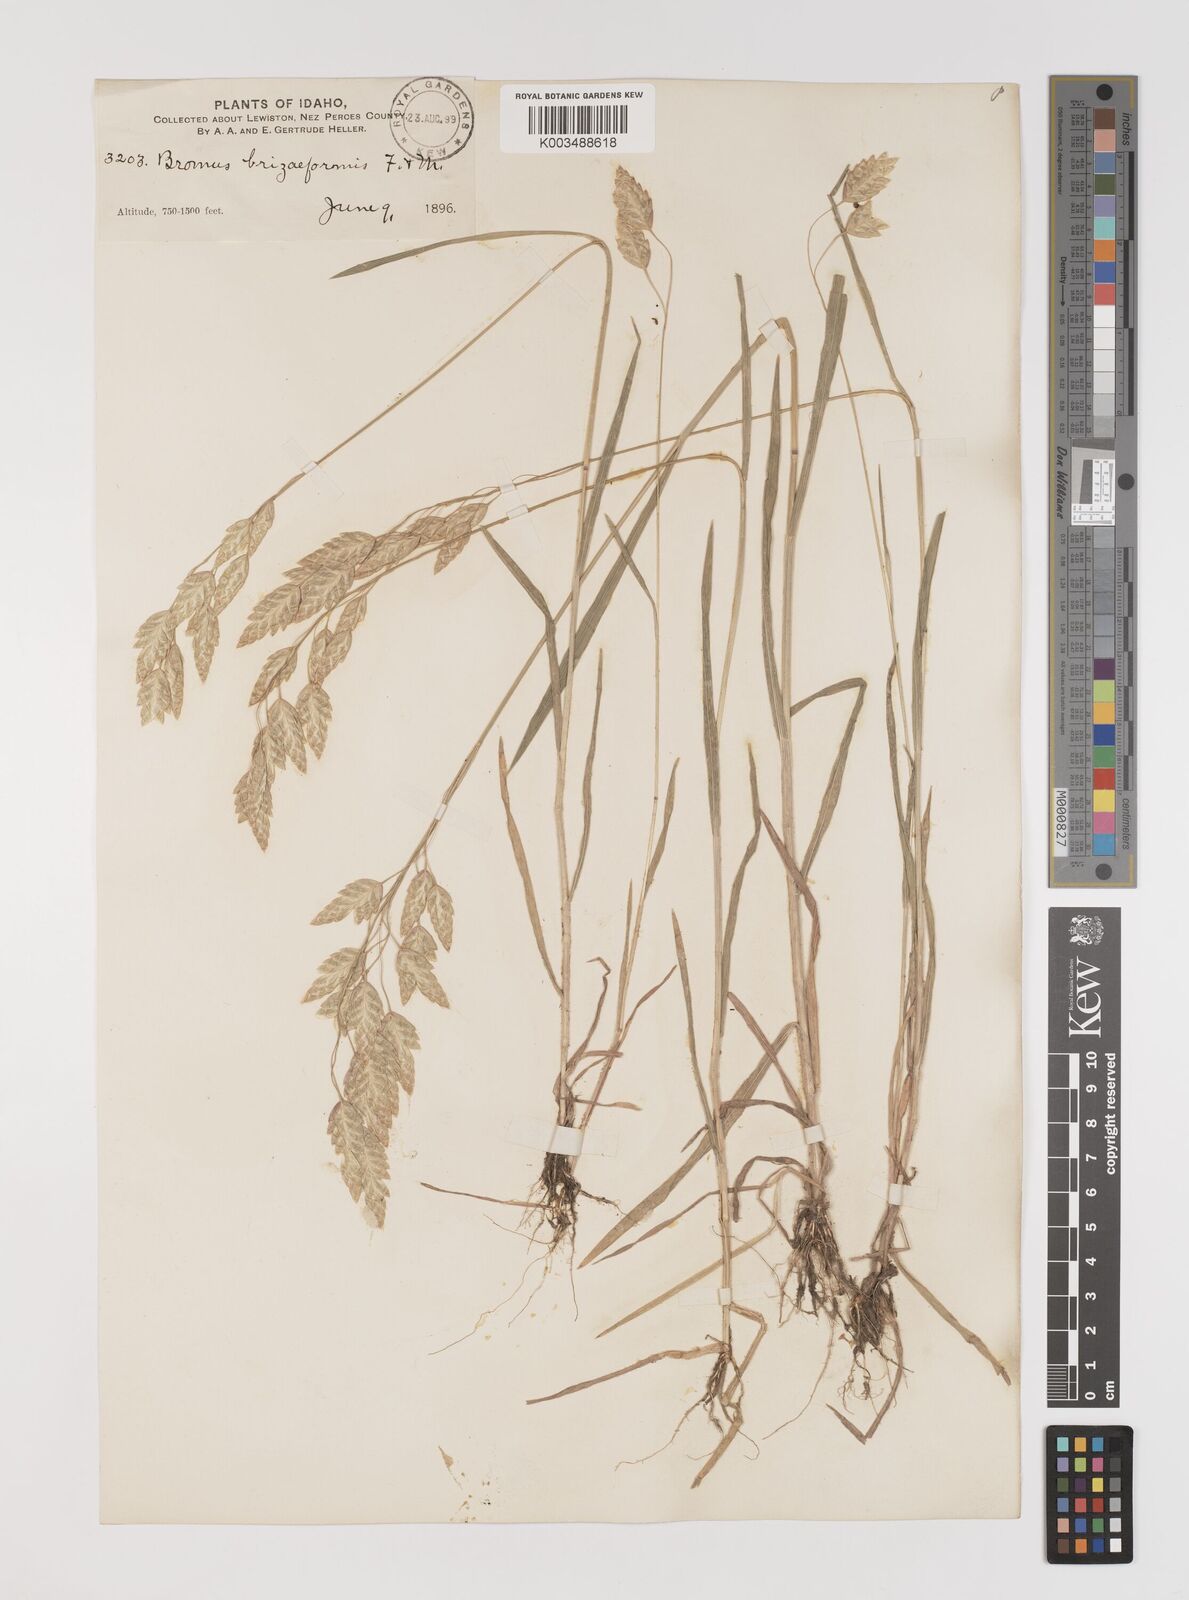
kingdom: Plantae
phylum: Tracheophyta
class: Liliopsida
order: Poales
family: Poaceae
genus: Bromus
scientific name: Bromus briziformis
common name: Rattlesnake brome
